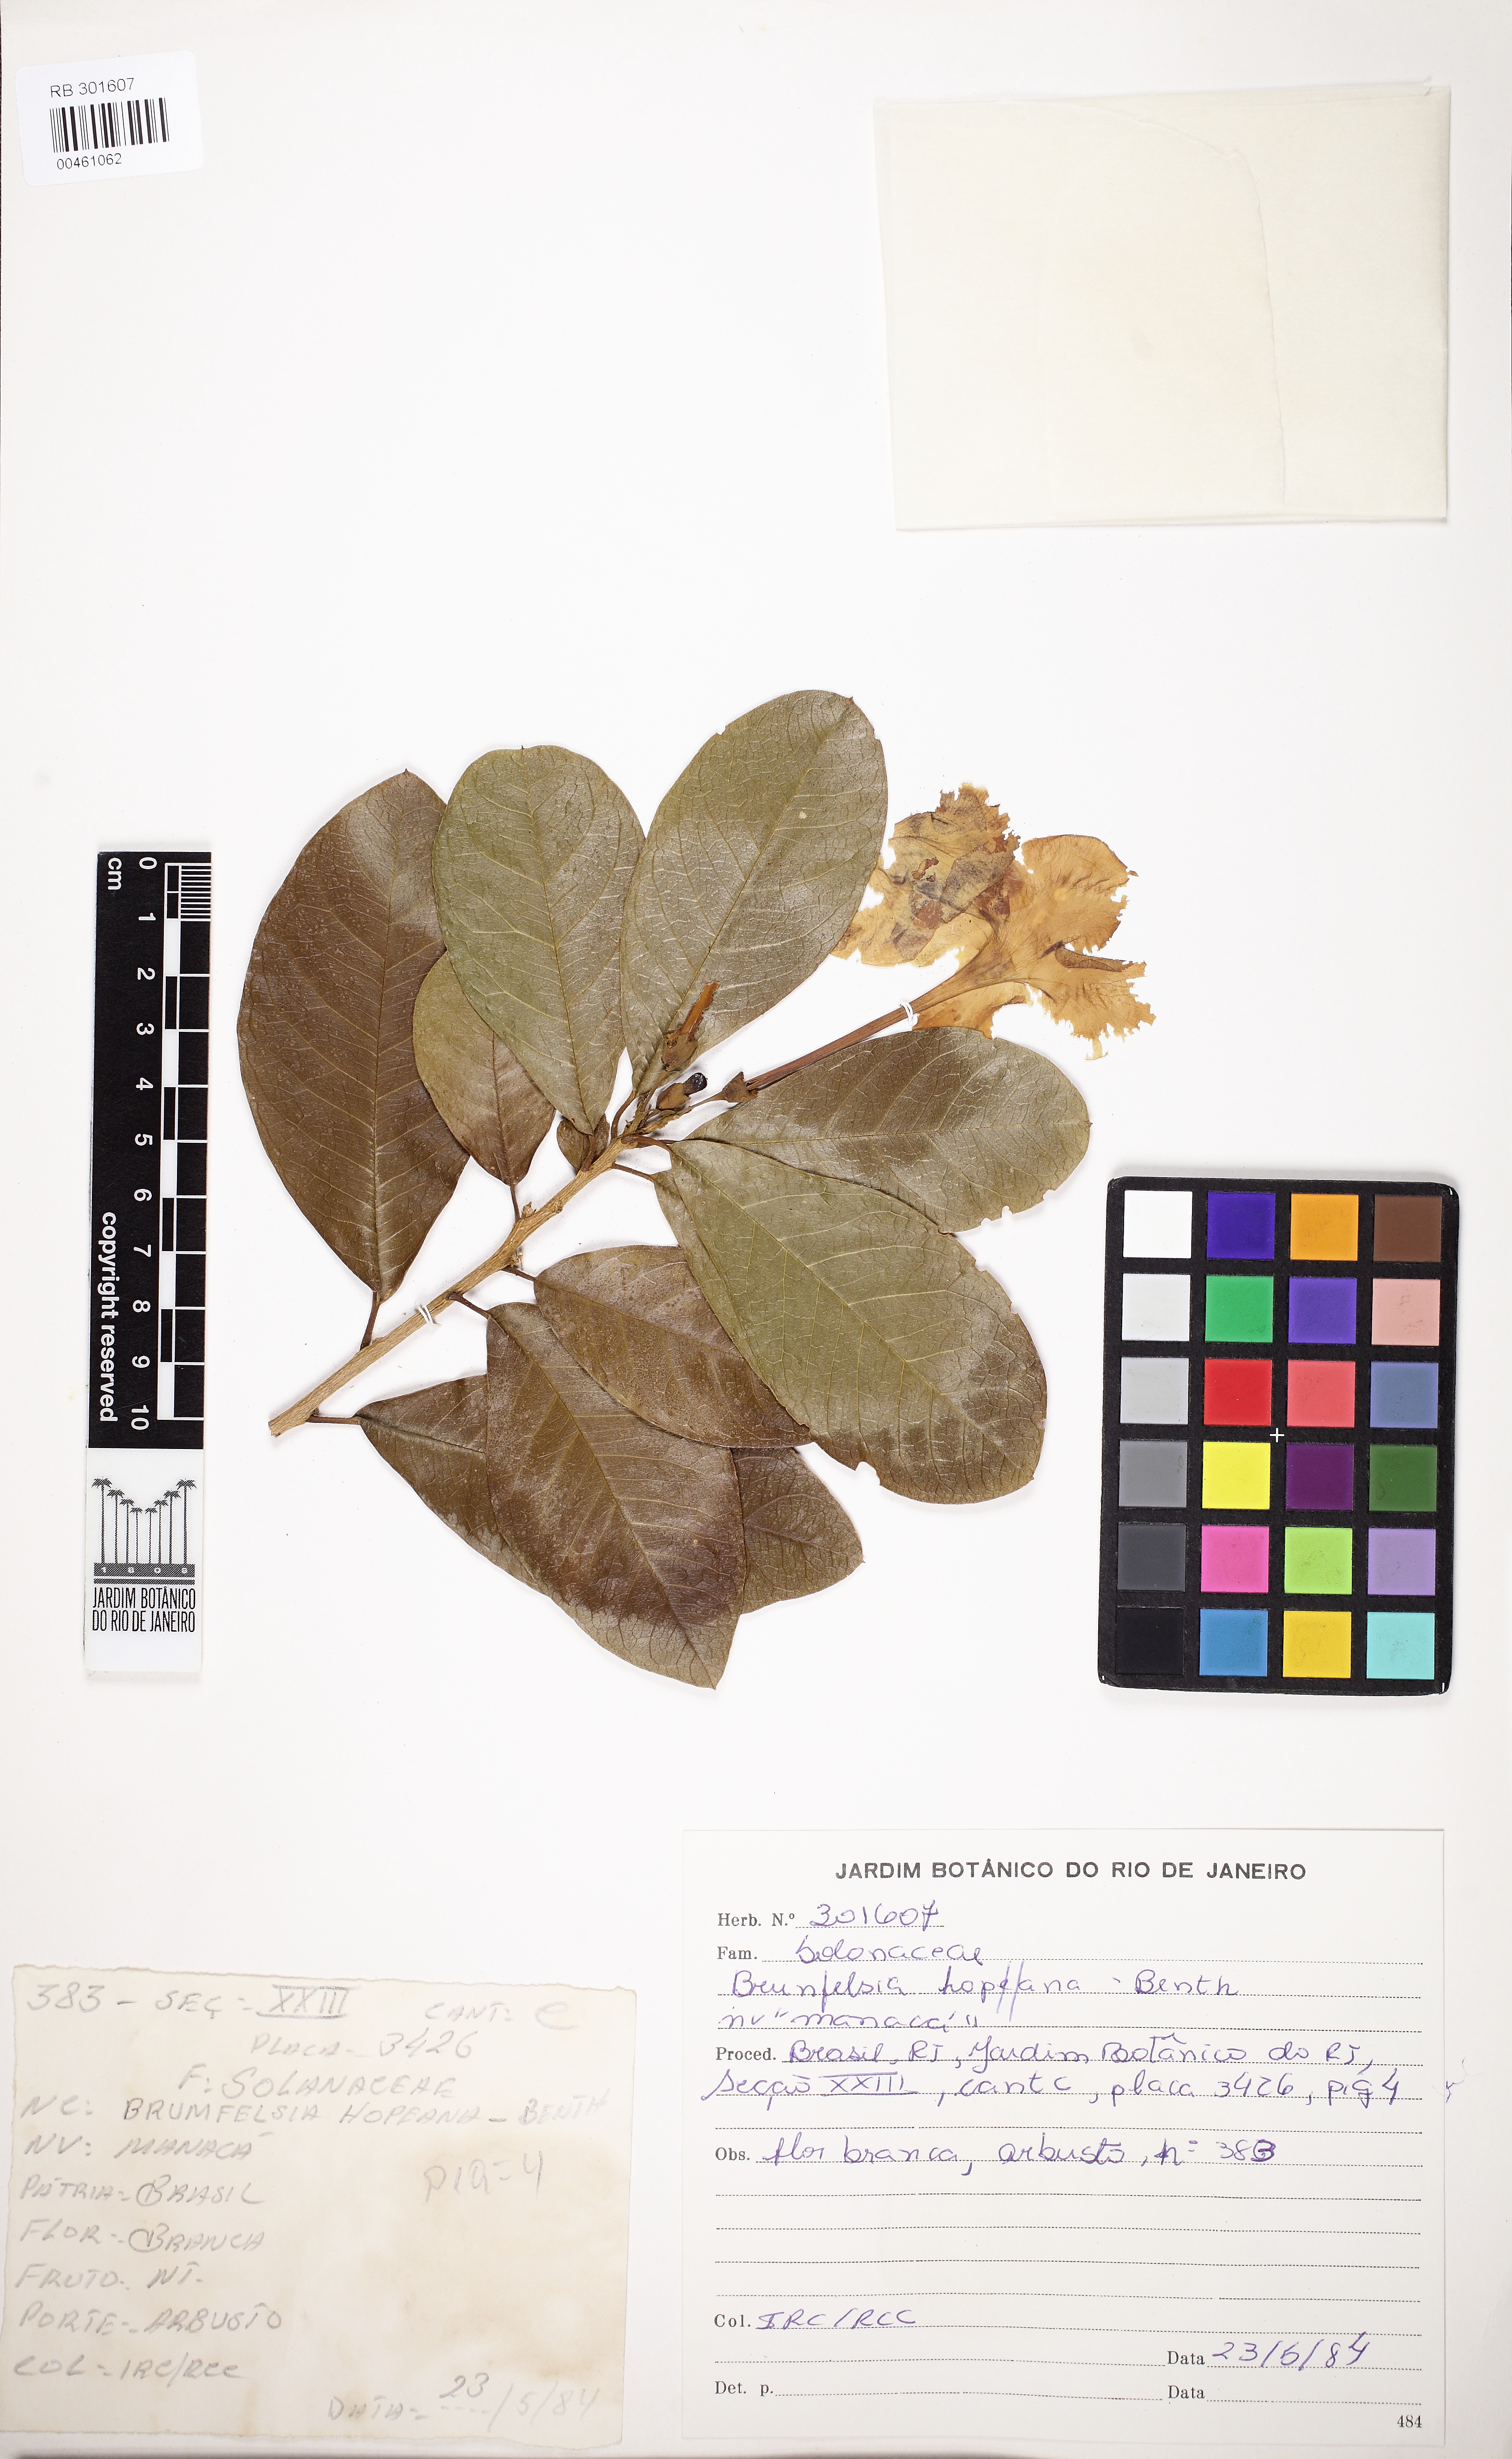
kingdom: Plantae
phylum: Tracheophyta
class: Magnoliopsida
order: Solanales
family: Solanaceae
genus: Brunfelsia
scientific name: Brunfelsia uniflora
